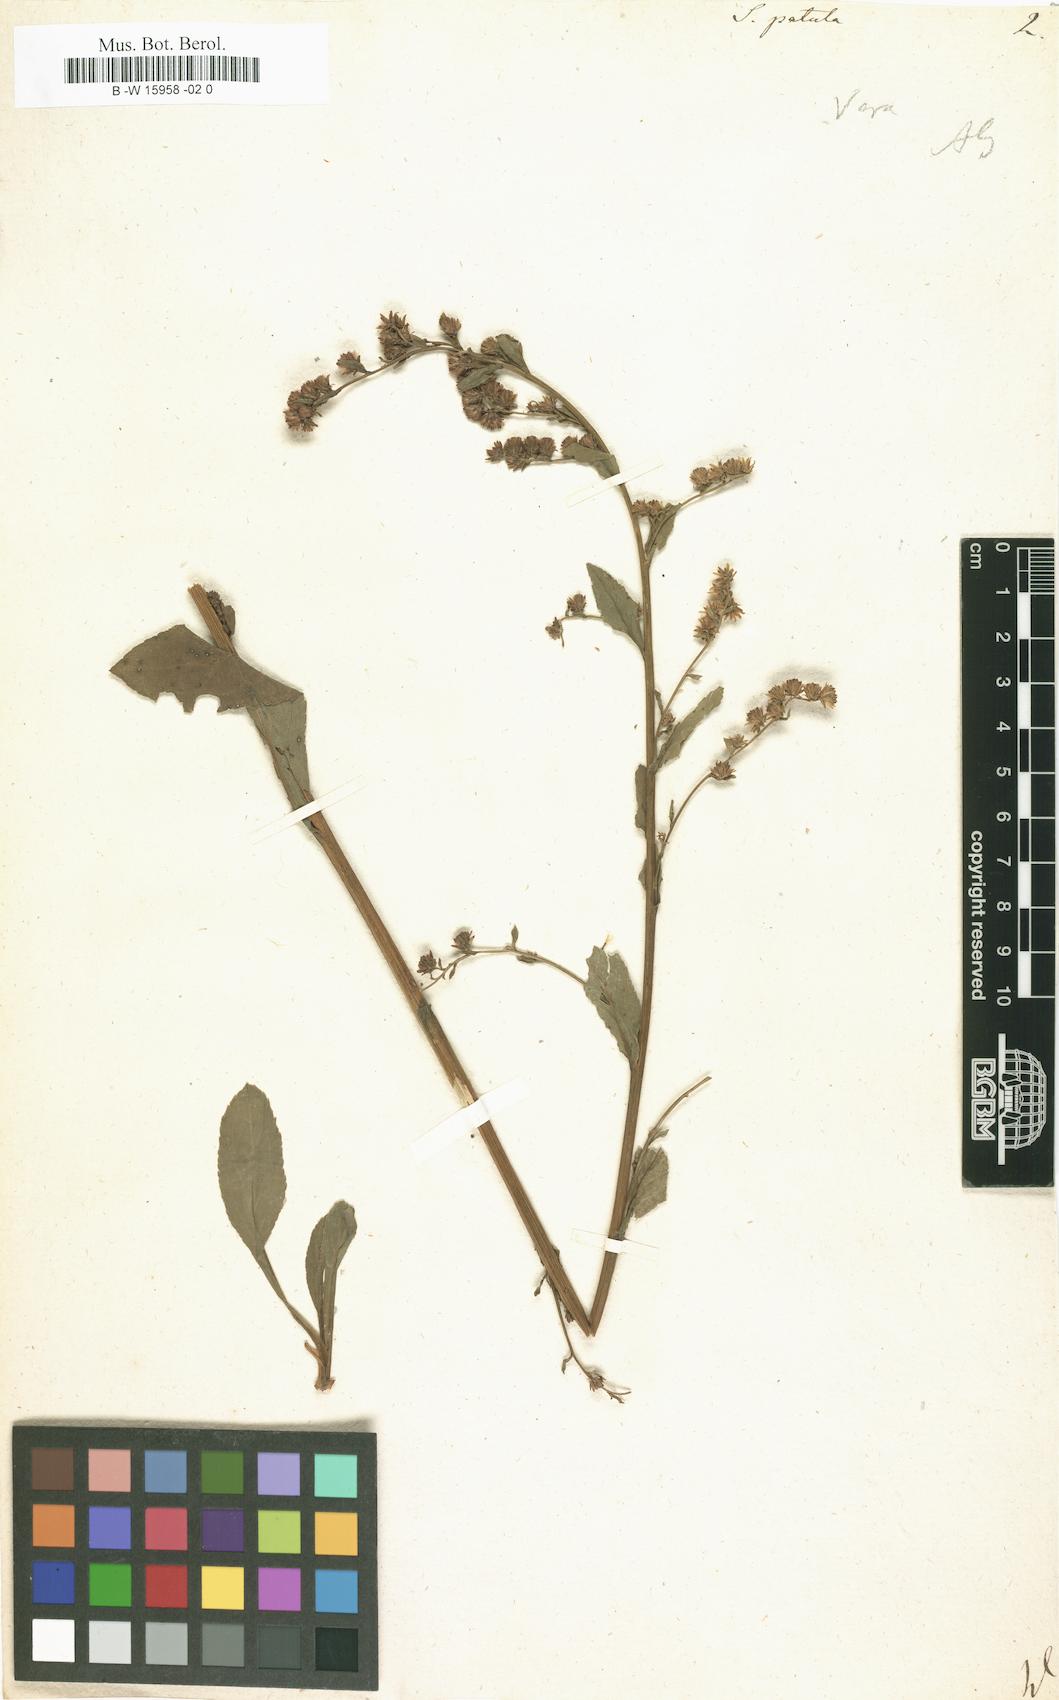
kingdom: Plantae
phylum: Tracheophyta
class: Magnoliopsida
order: Asterales
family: Asteraceae
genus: Solidago
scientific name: Solidago patula
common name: Rough-leaf goldenrod
